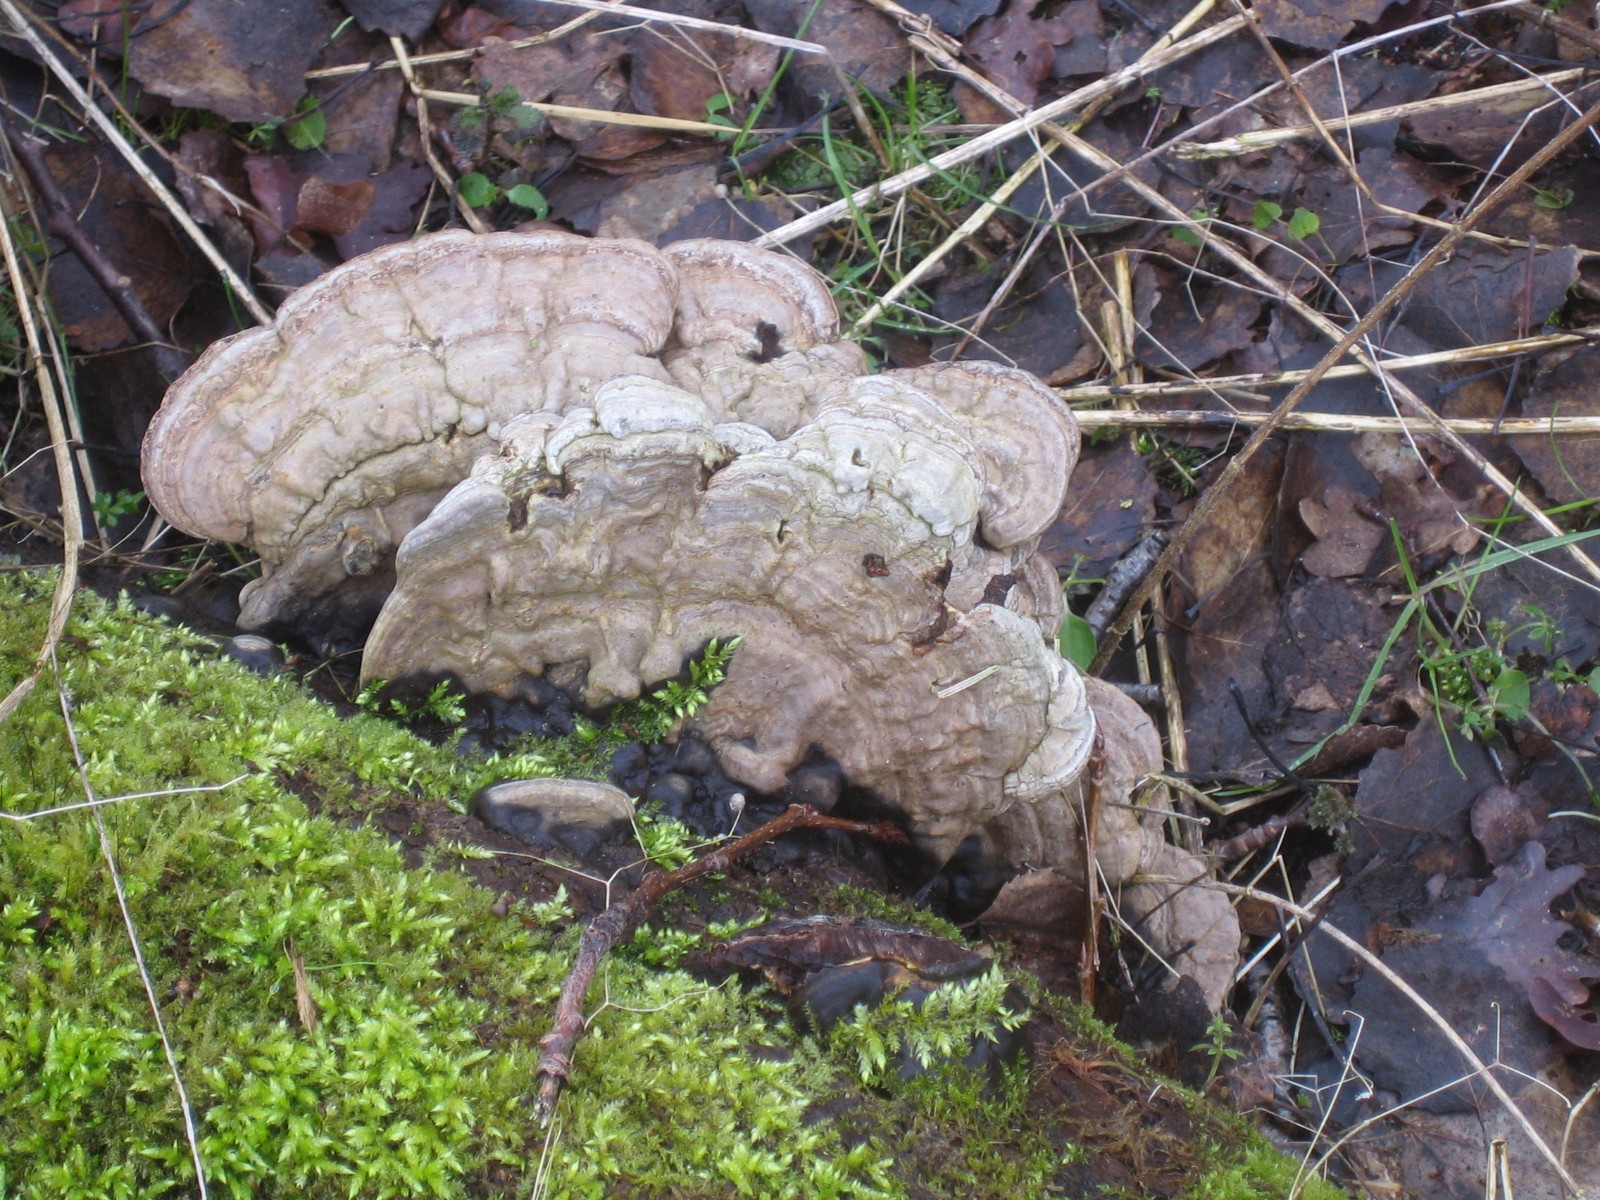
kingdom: Fungi
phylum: Basidiomycota
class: Agaricomycetes
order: Polyporales
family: Polyporaceae
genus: Ganoderma
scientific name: Ganoderma applanatum
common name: flad lakporesvamp
